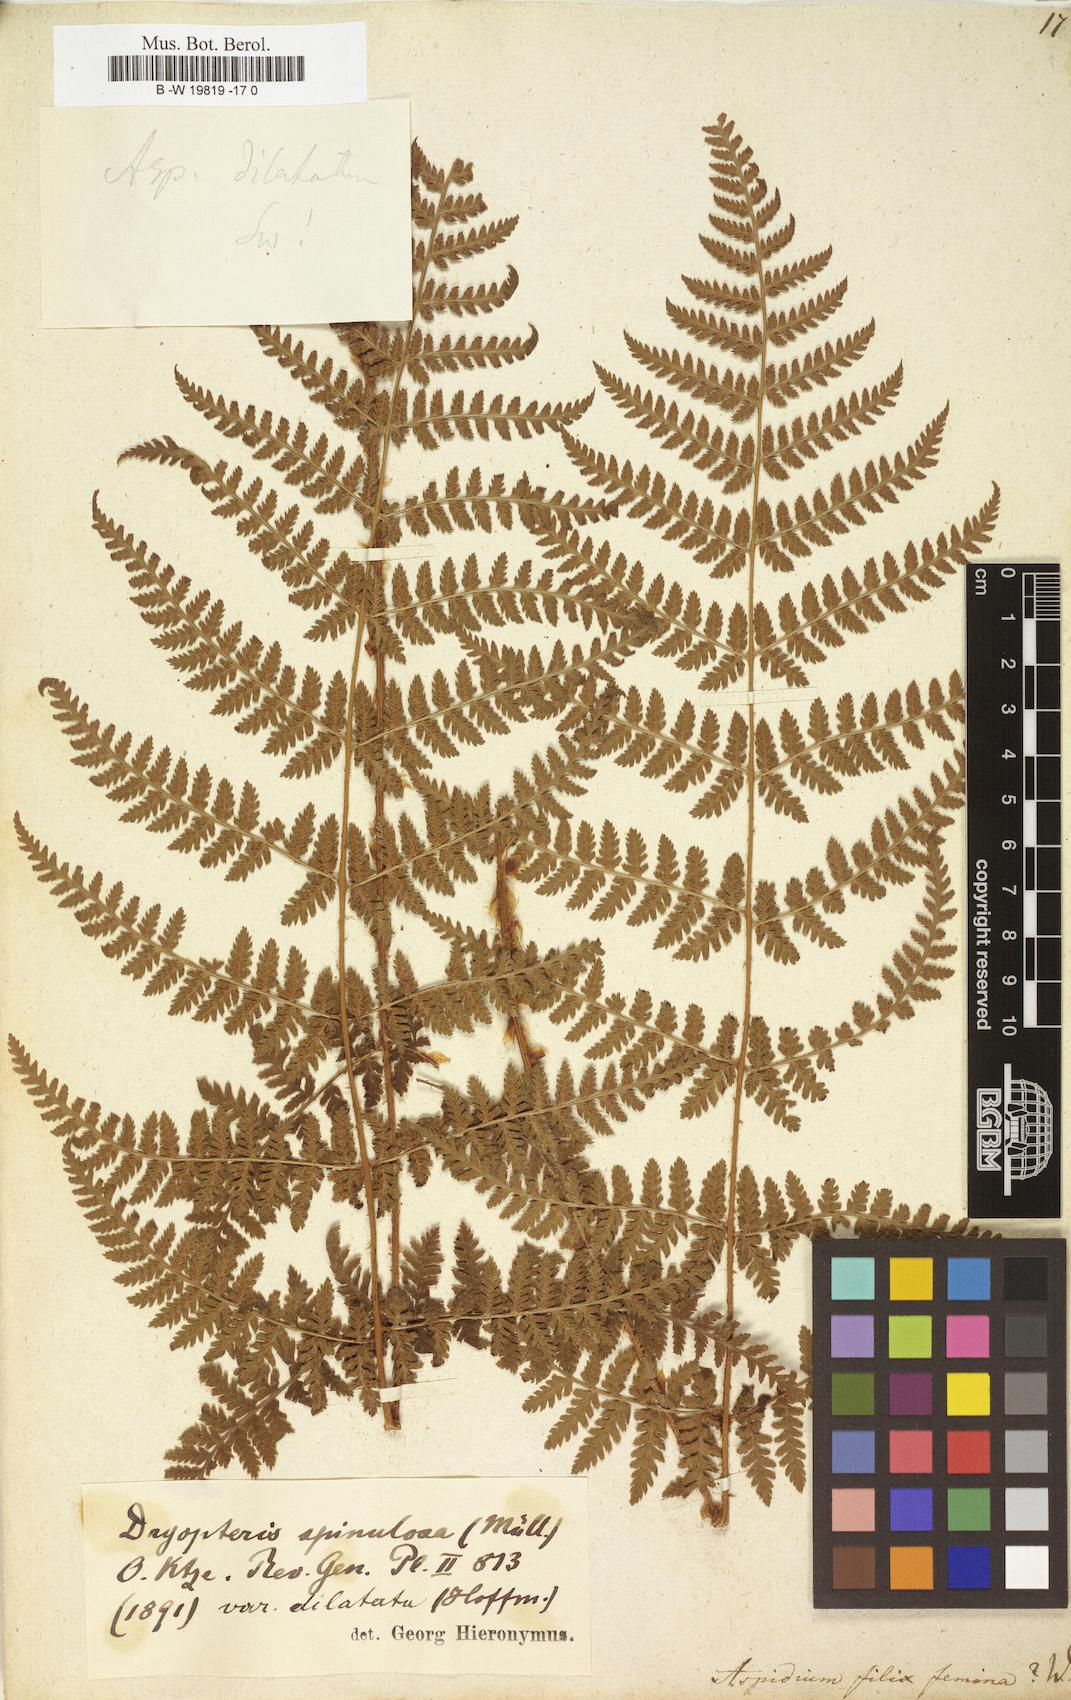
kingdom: Plantae
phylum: Tracheophyta
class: Polypodiopsida
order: Polypodiales
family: Athyriaceae
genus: Athyrium
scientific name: Athyrium filix-femina
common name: Lady fern
